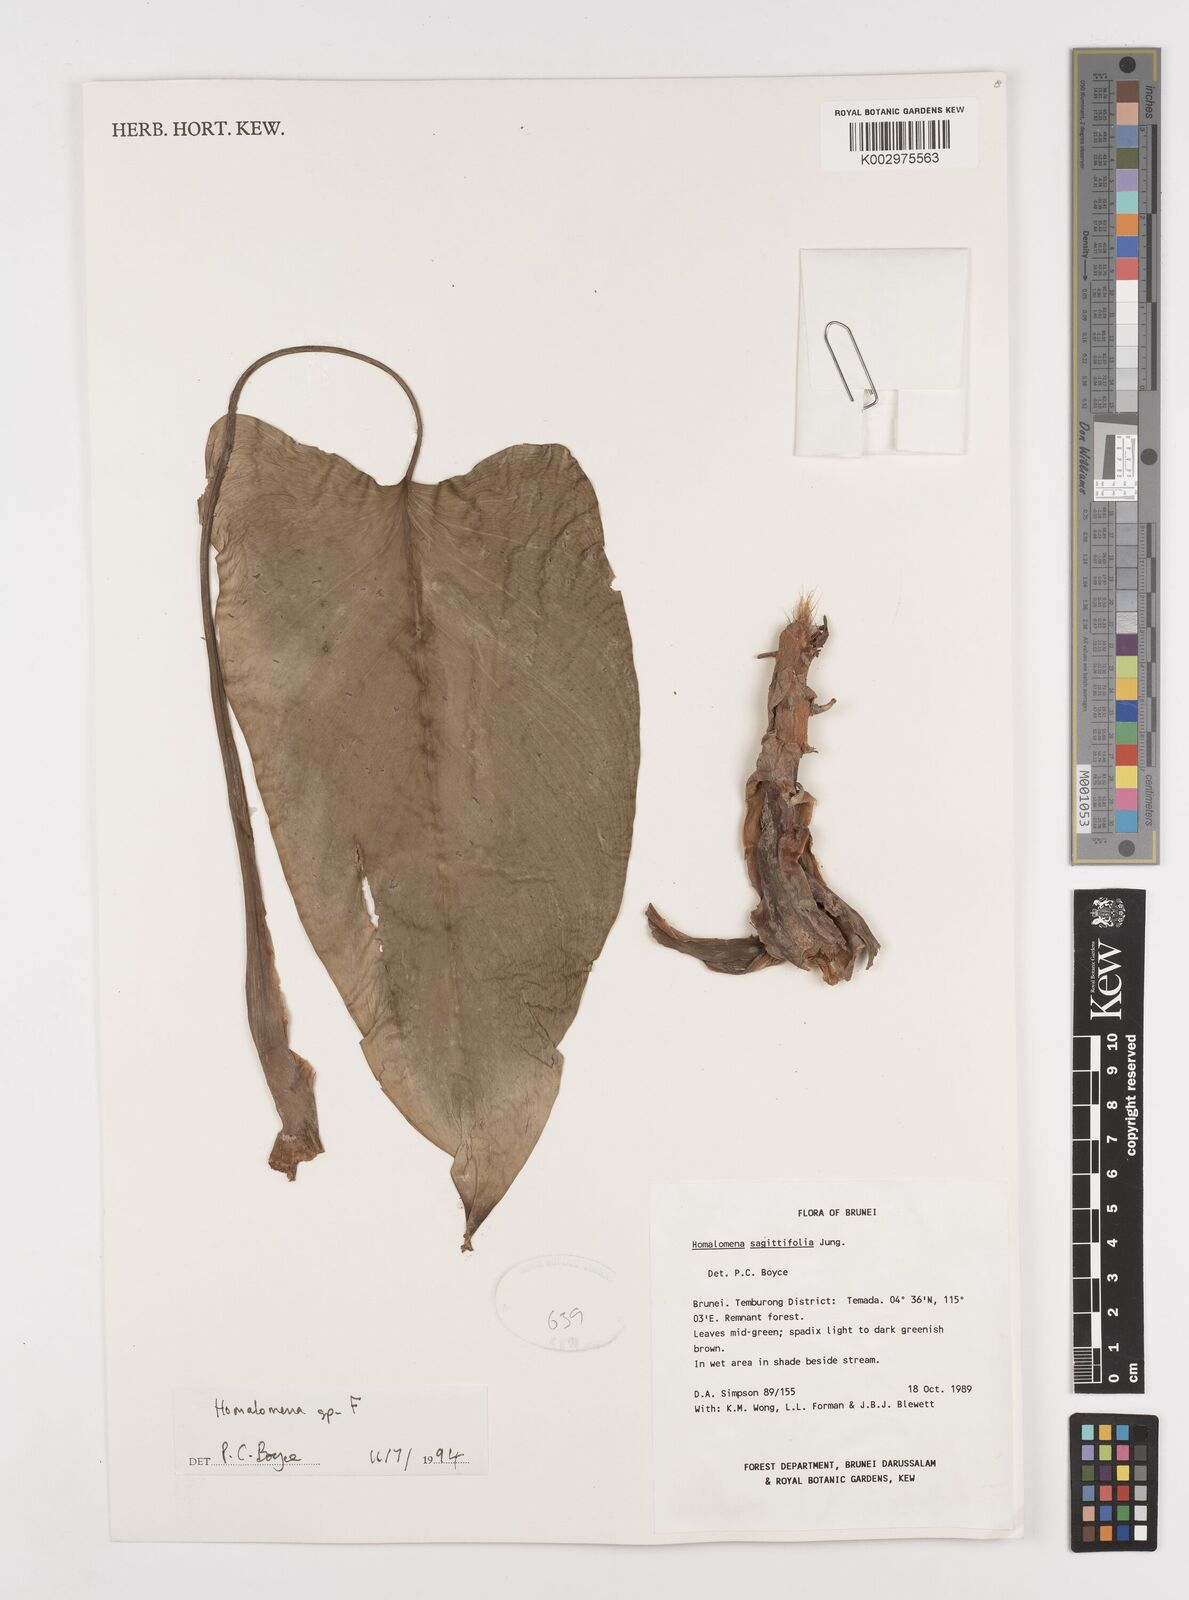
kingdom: Plantae
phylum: Tracheophyta
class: Liliopsida
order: Alismatales
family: Araceae
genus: Homalomena
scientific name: Homalomena
